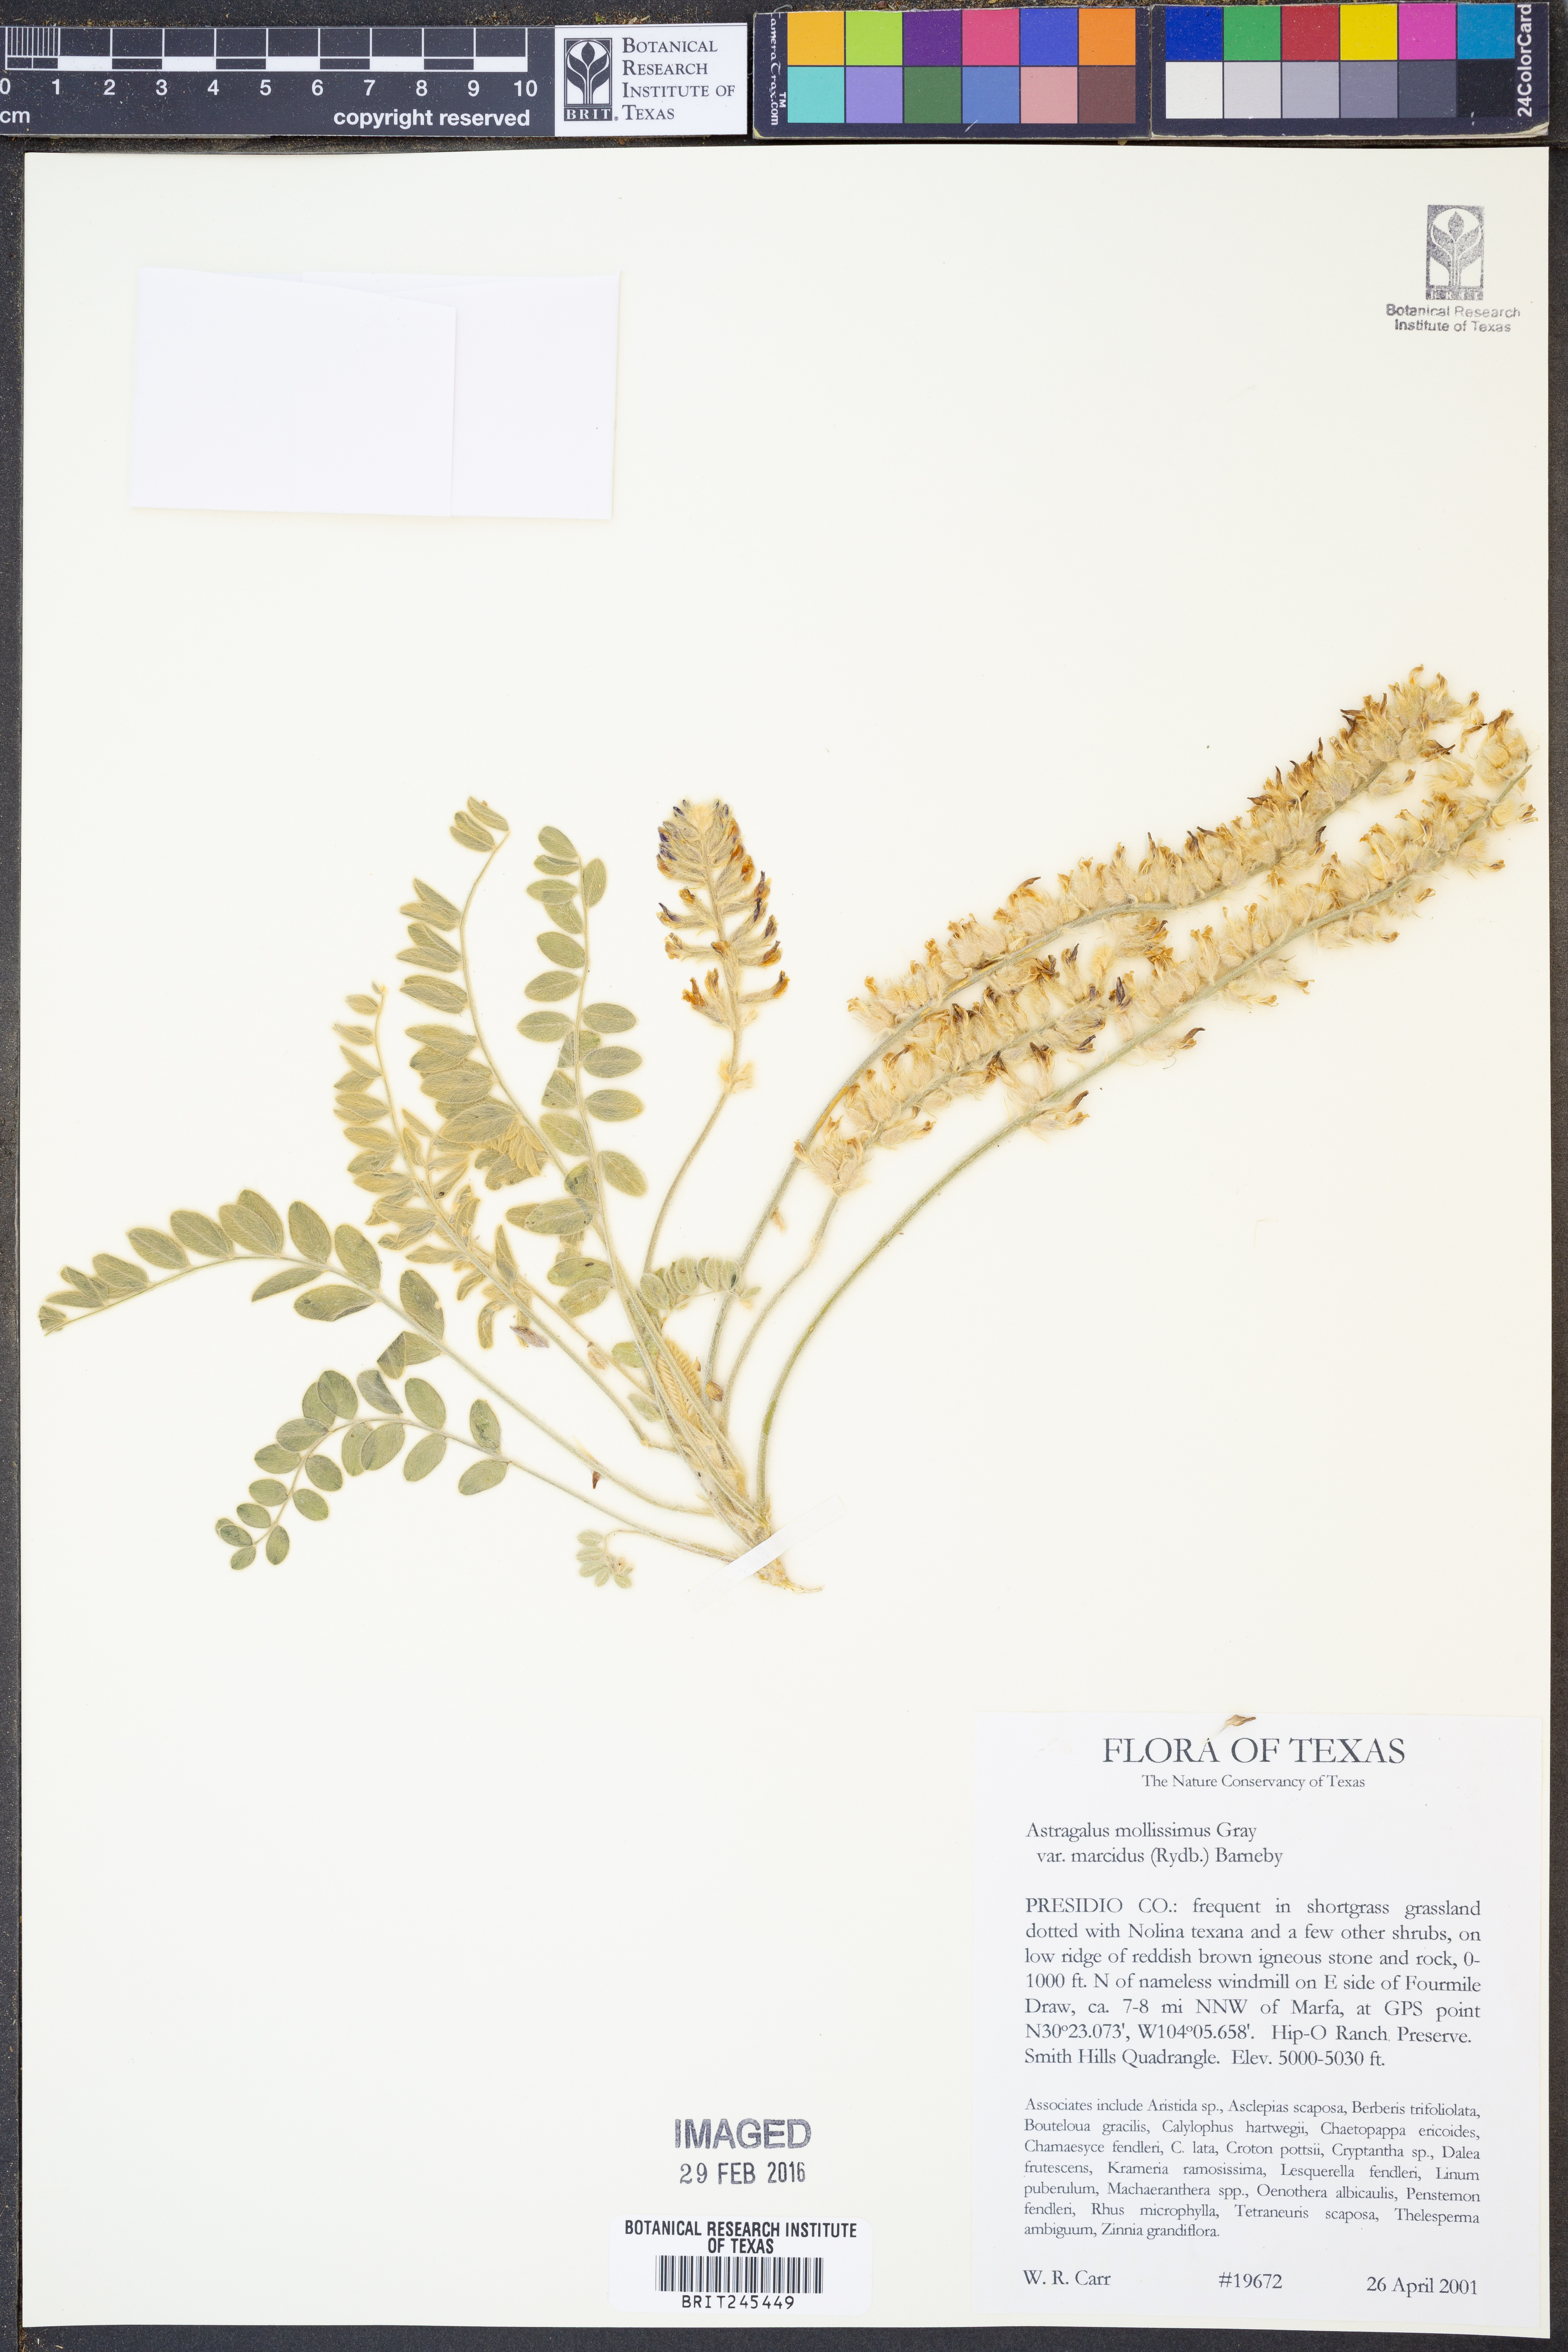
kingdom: Plantae
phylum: Tracheophyta
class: Magnoliopsida
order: Fabales
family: Fabaceae
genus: Astragalus
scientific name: Astragalus mollissimus
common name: Woolly locoweed
